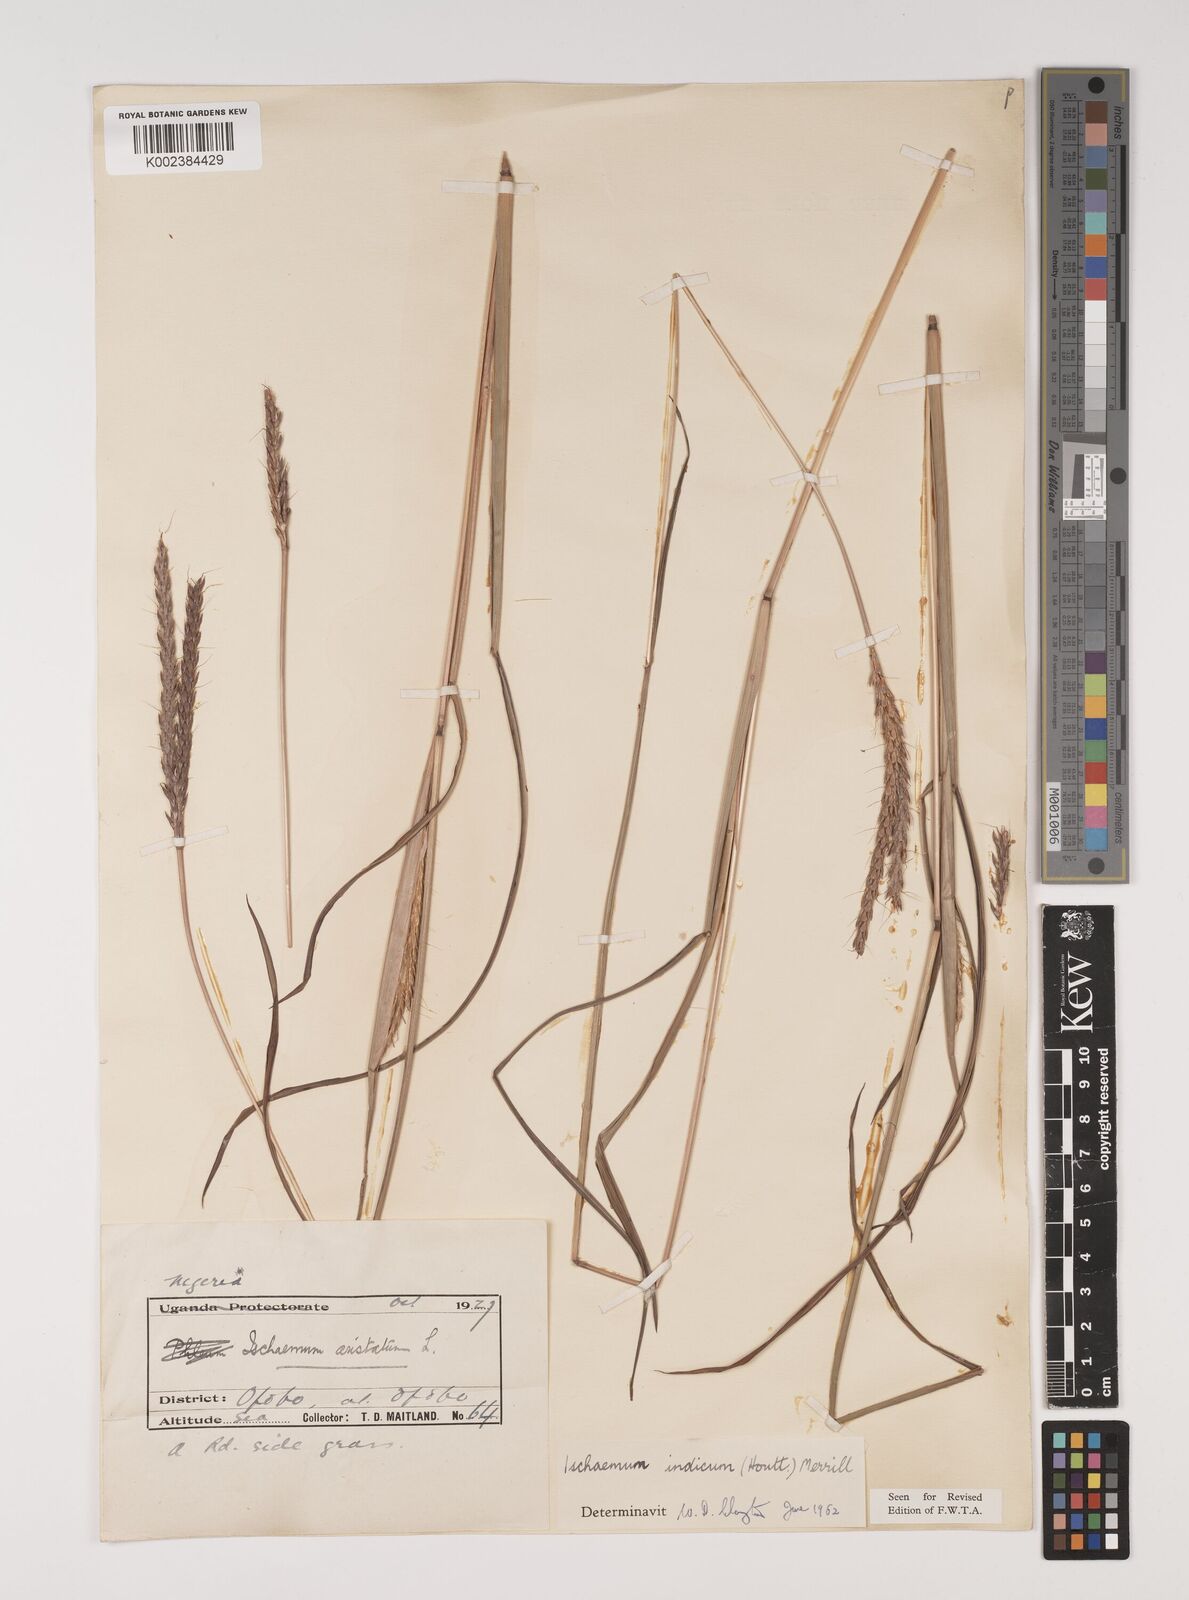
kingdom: Plantae
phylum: Tracheophyta
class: Liliopsida
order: Poales
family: Poaceae
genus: Polytrias
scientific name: Polytrias indica
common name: Indian murainagrass
